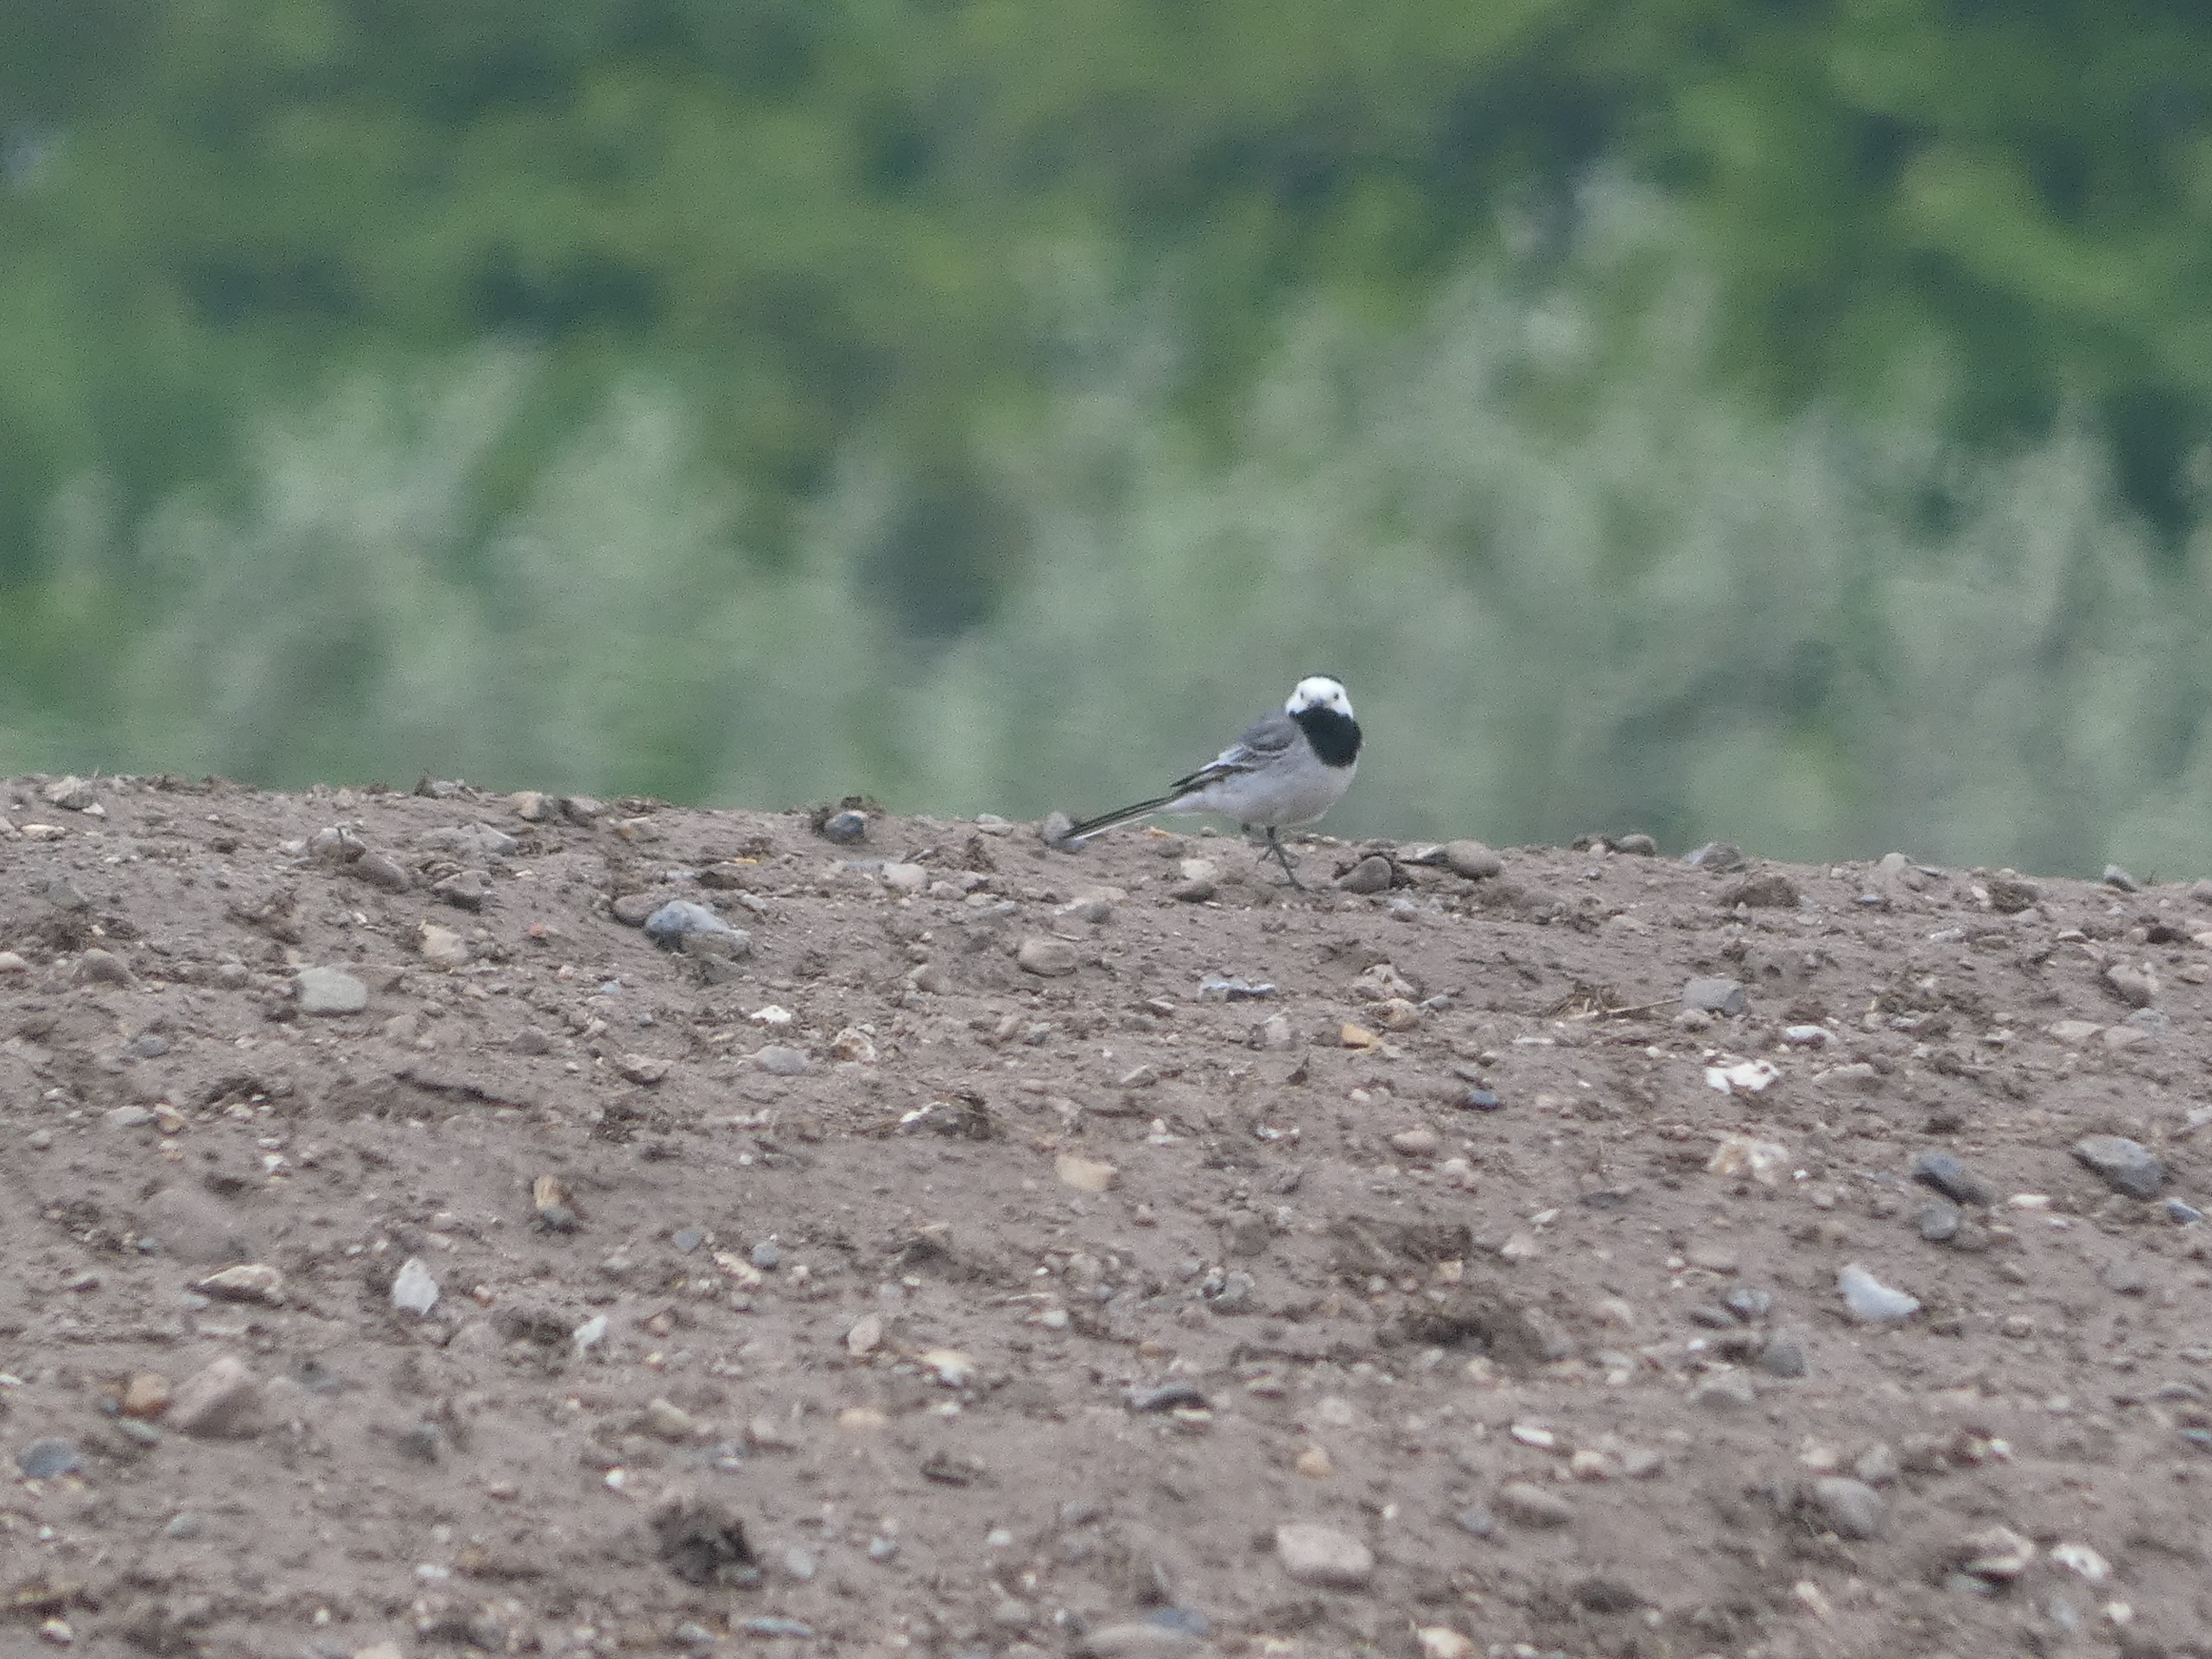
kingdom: Animalia
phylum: Chordata
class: Aves
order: Passeriformes
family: Motacillidae
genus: Motacilla
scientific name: Motacilla alba
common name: Hvid vipstjert
